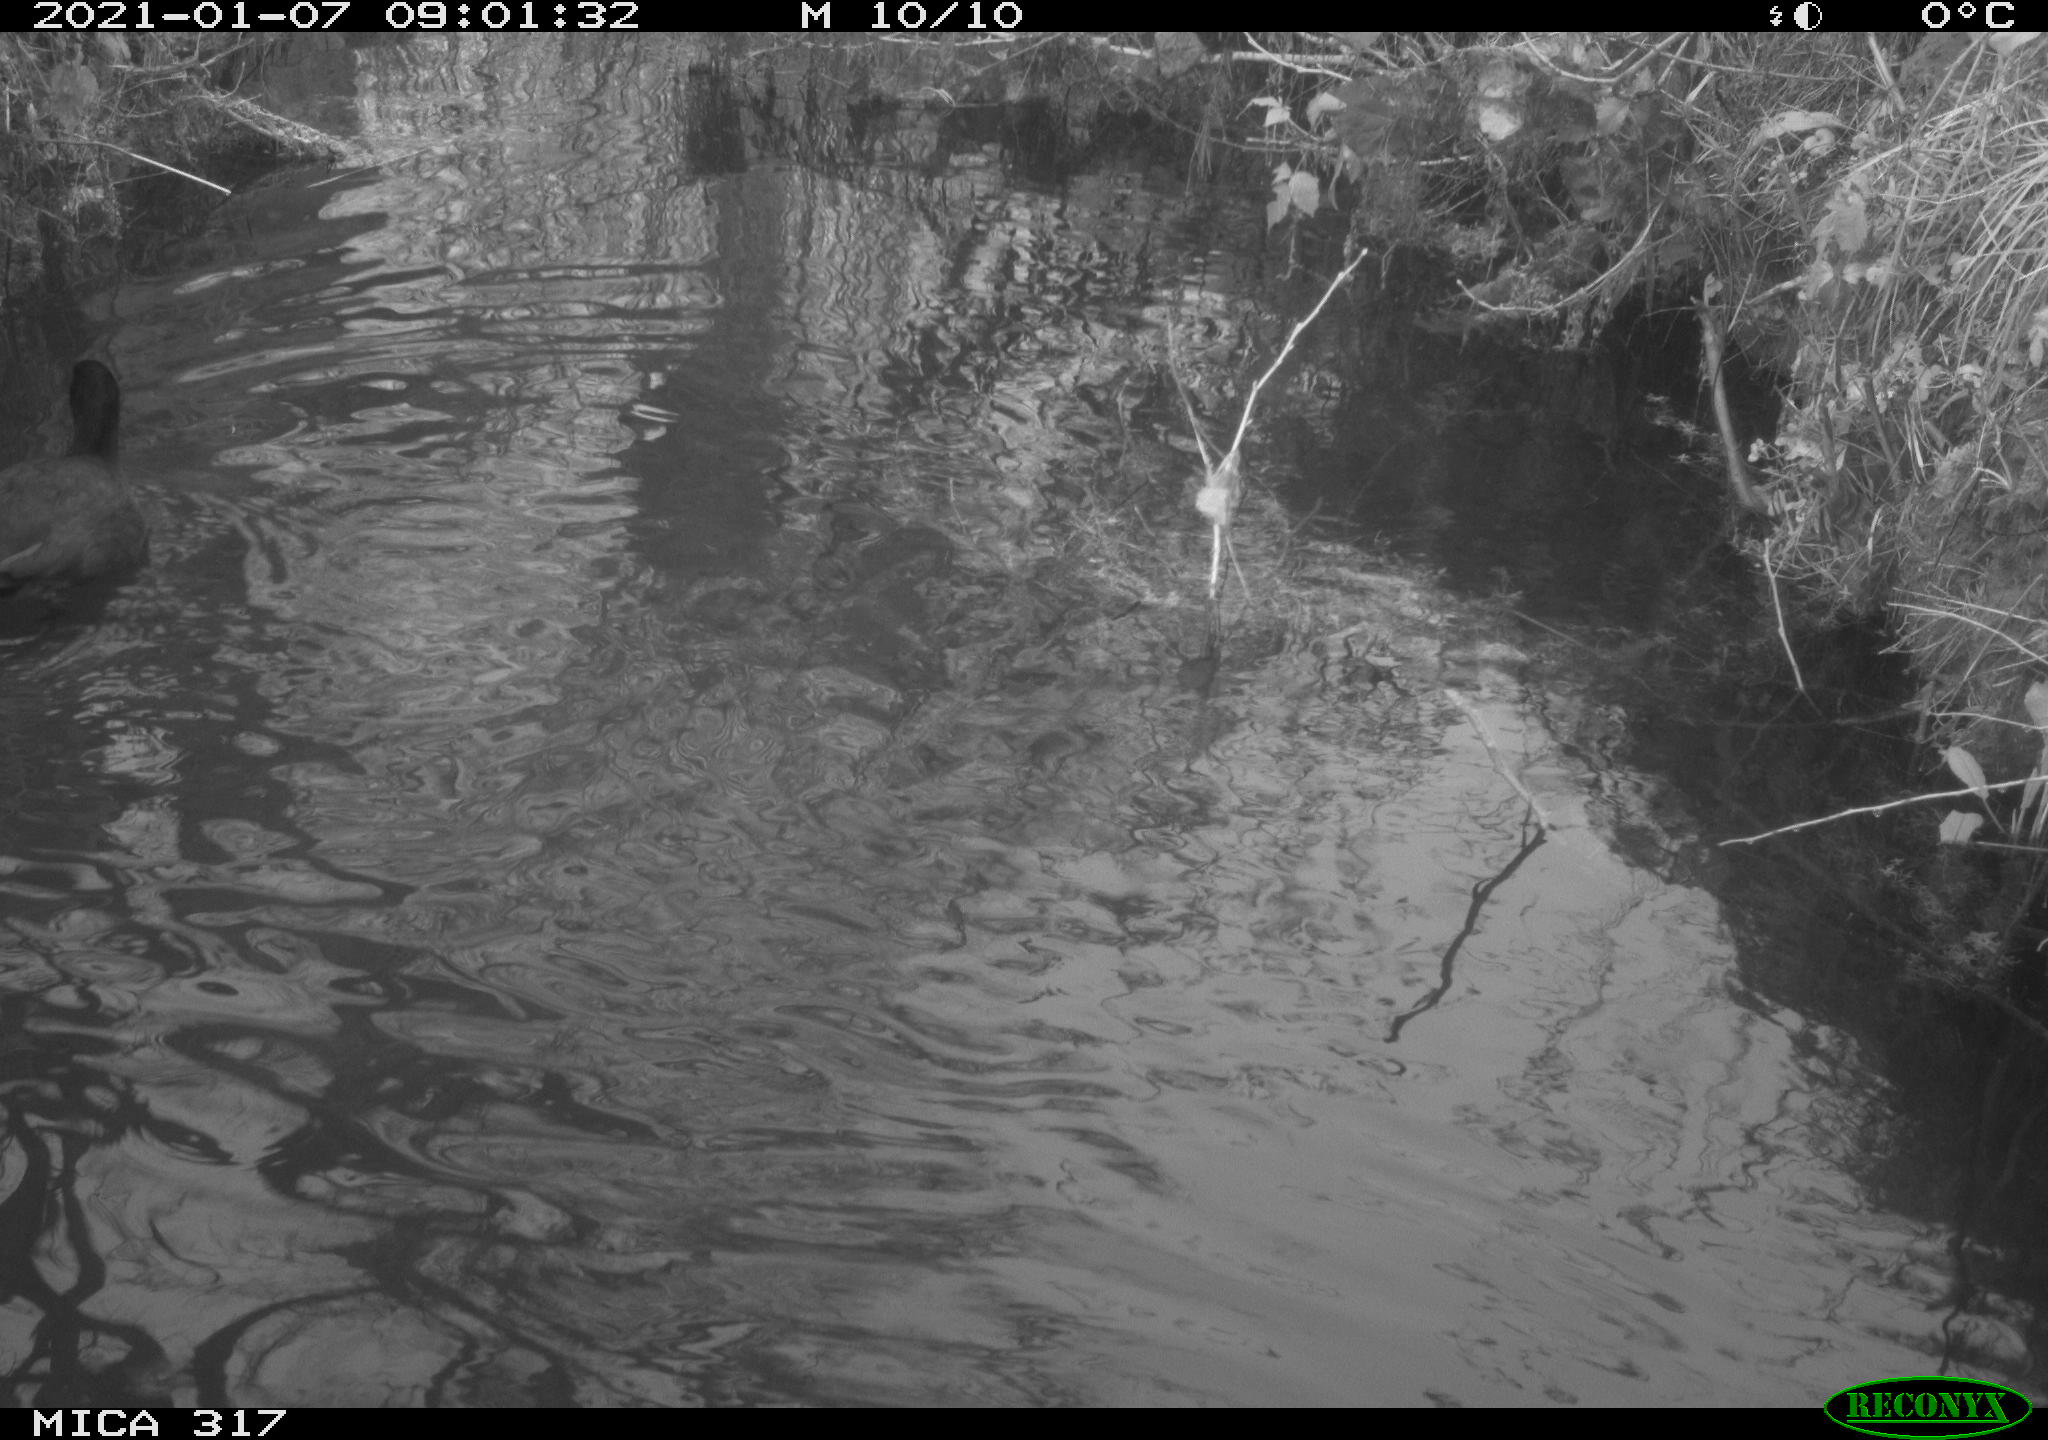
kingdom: Animalia
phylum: Chordata
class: Aves
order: Gruiformes
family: Rallidae
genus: Fulica
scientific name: Fulica atra
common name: Eurasian coot
